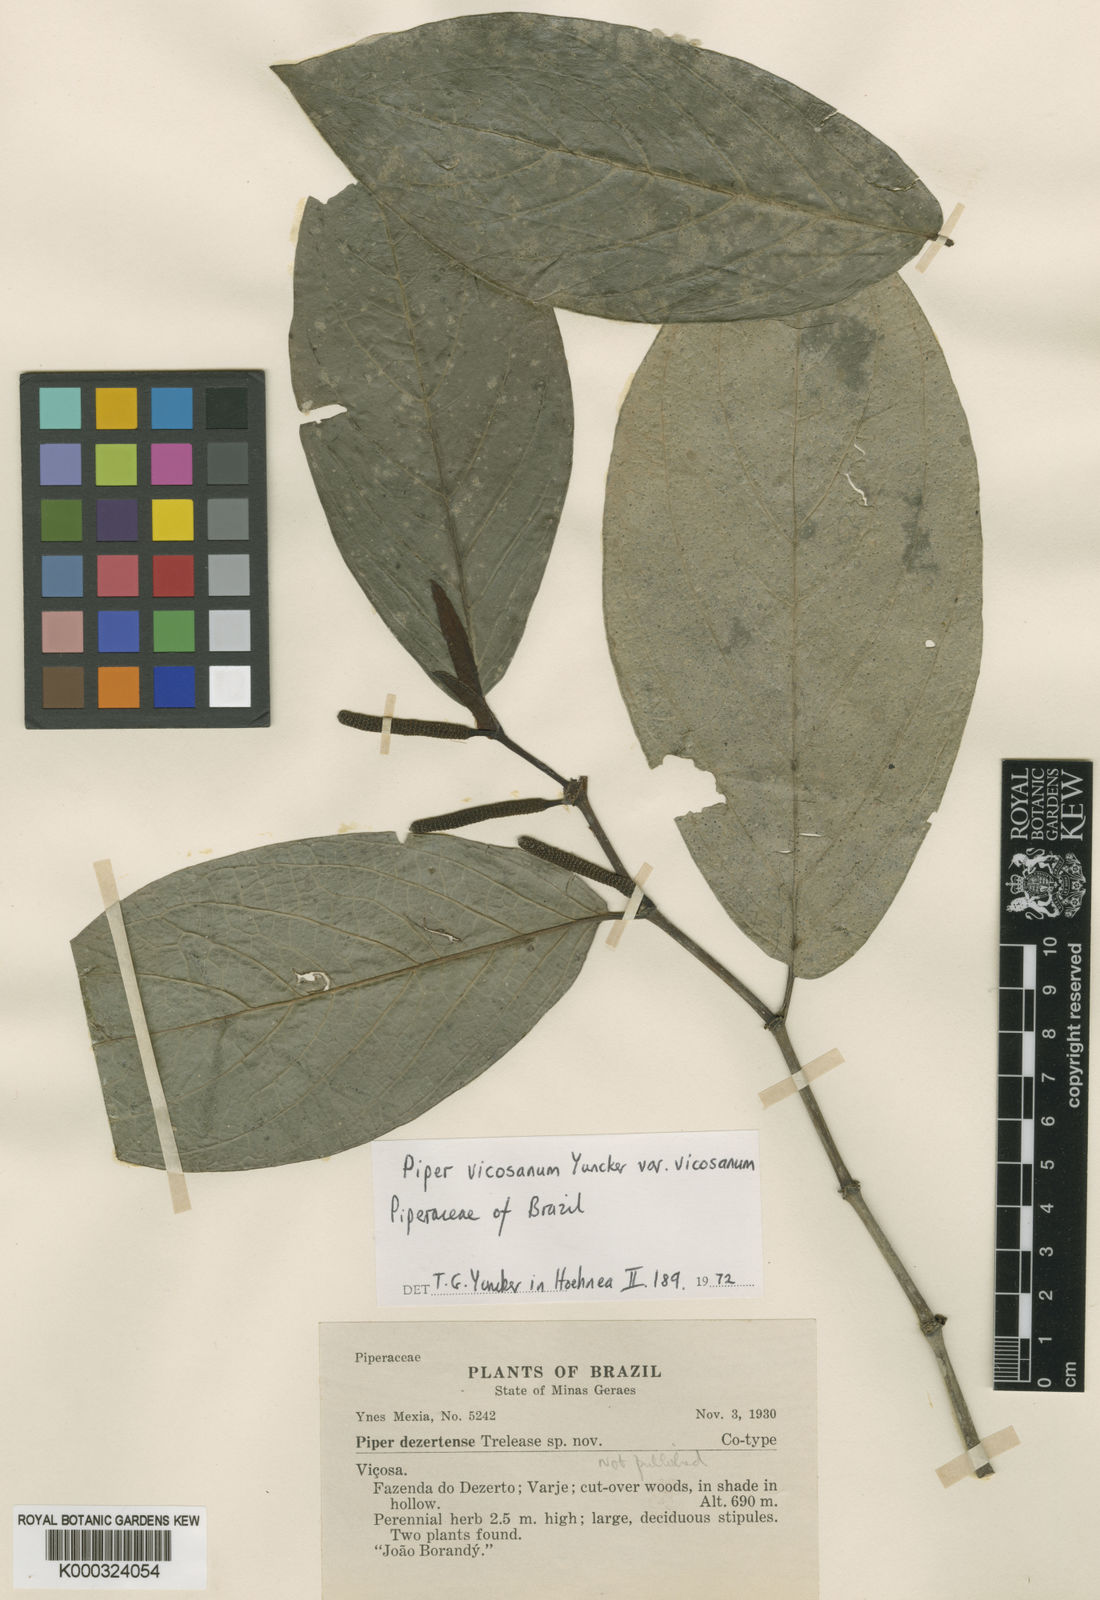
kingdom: Plantae
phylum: Tracheophyta
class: Magnoliopsida
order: Piperales
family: Piperaceae
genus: Piper
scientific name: Piper vicosanum
